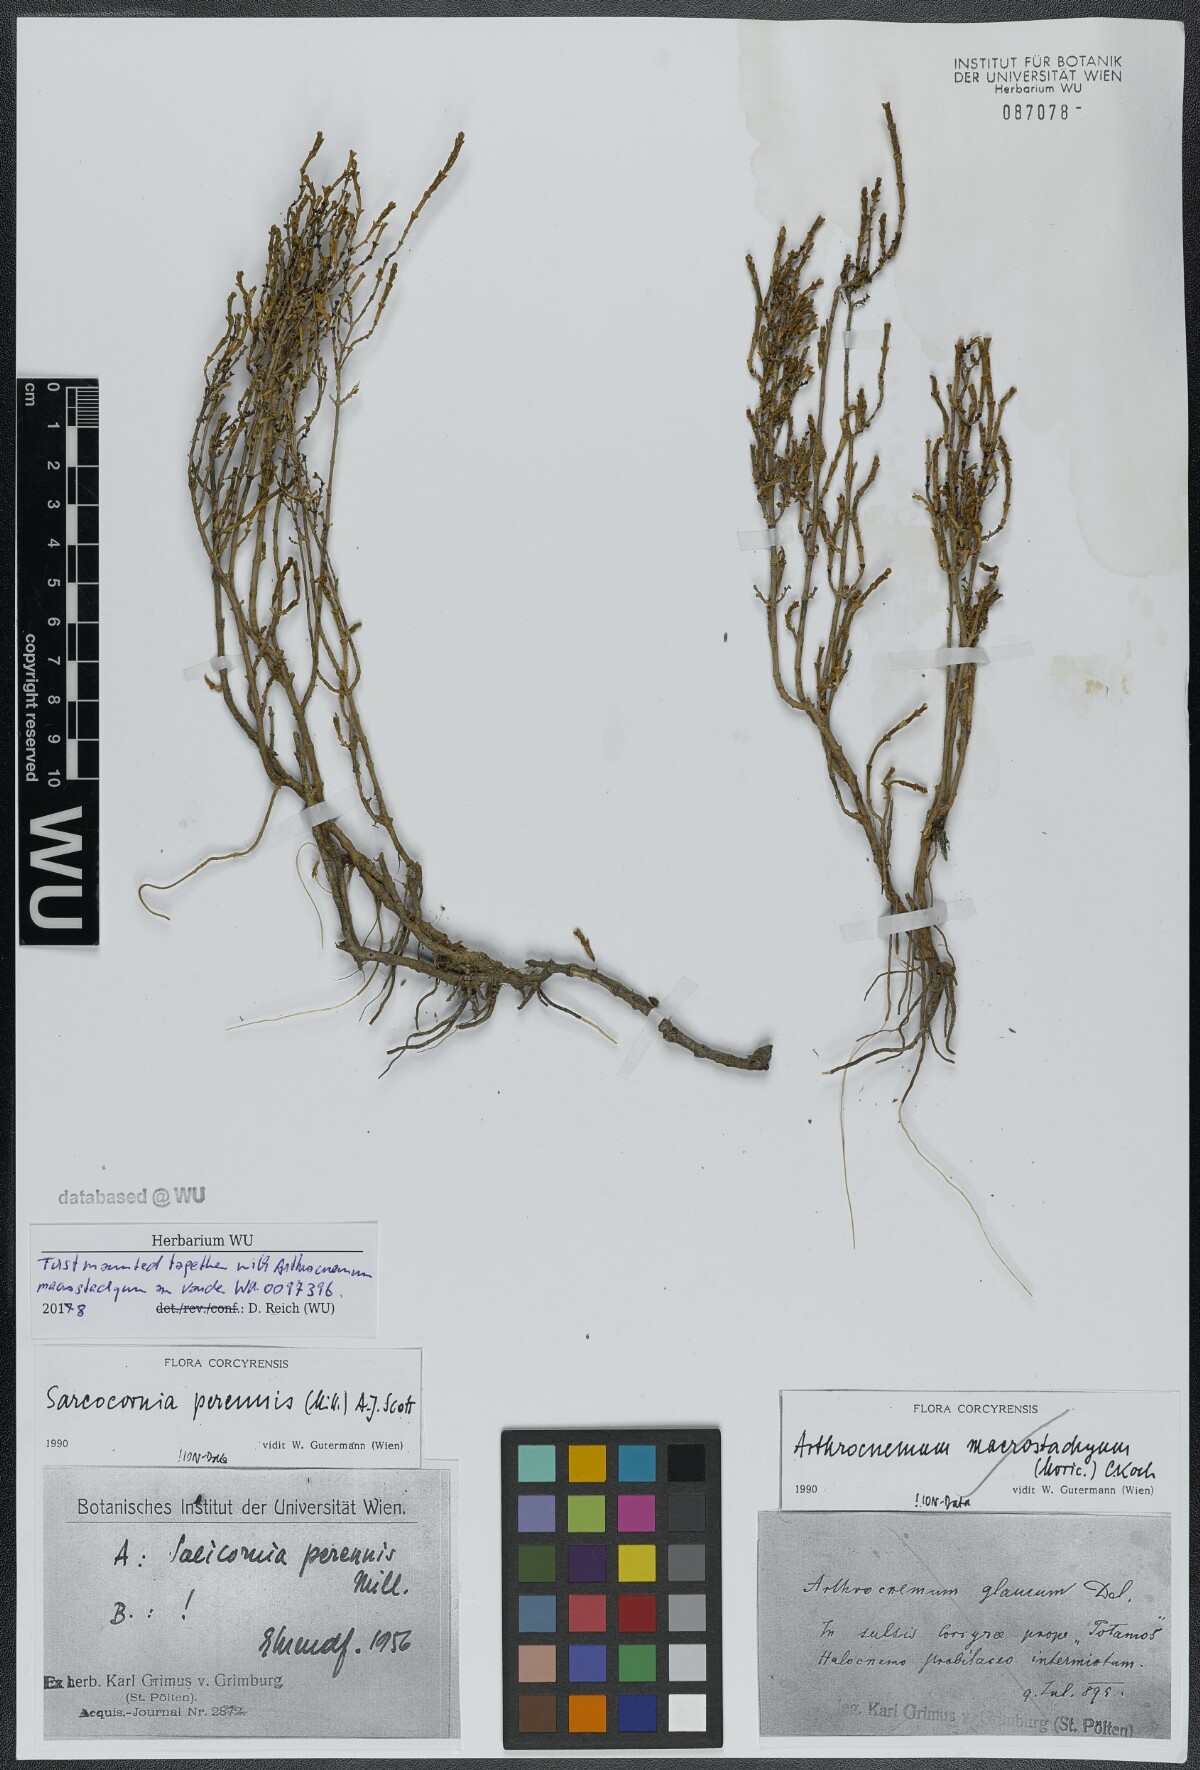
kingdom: Plantae
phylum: Tracheophyta
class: Magnoliopsida
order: Caryophyllales
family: Amaranthaceae
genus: Salicornia
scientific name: Salicornia perennis
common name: Chicken claws
